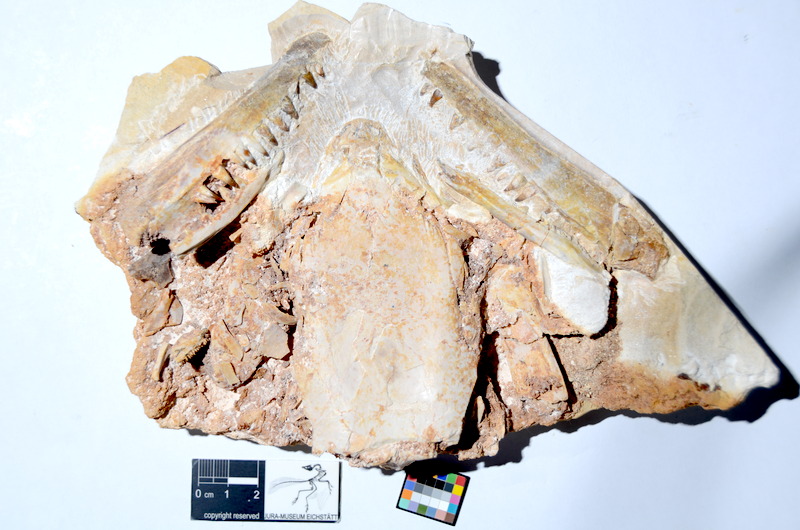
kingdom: Animalia
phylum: Chordata
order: Amiiformes
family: Caturidae
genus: Caturus
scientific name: Caturus
